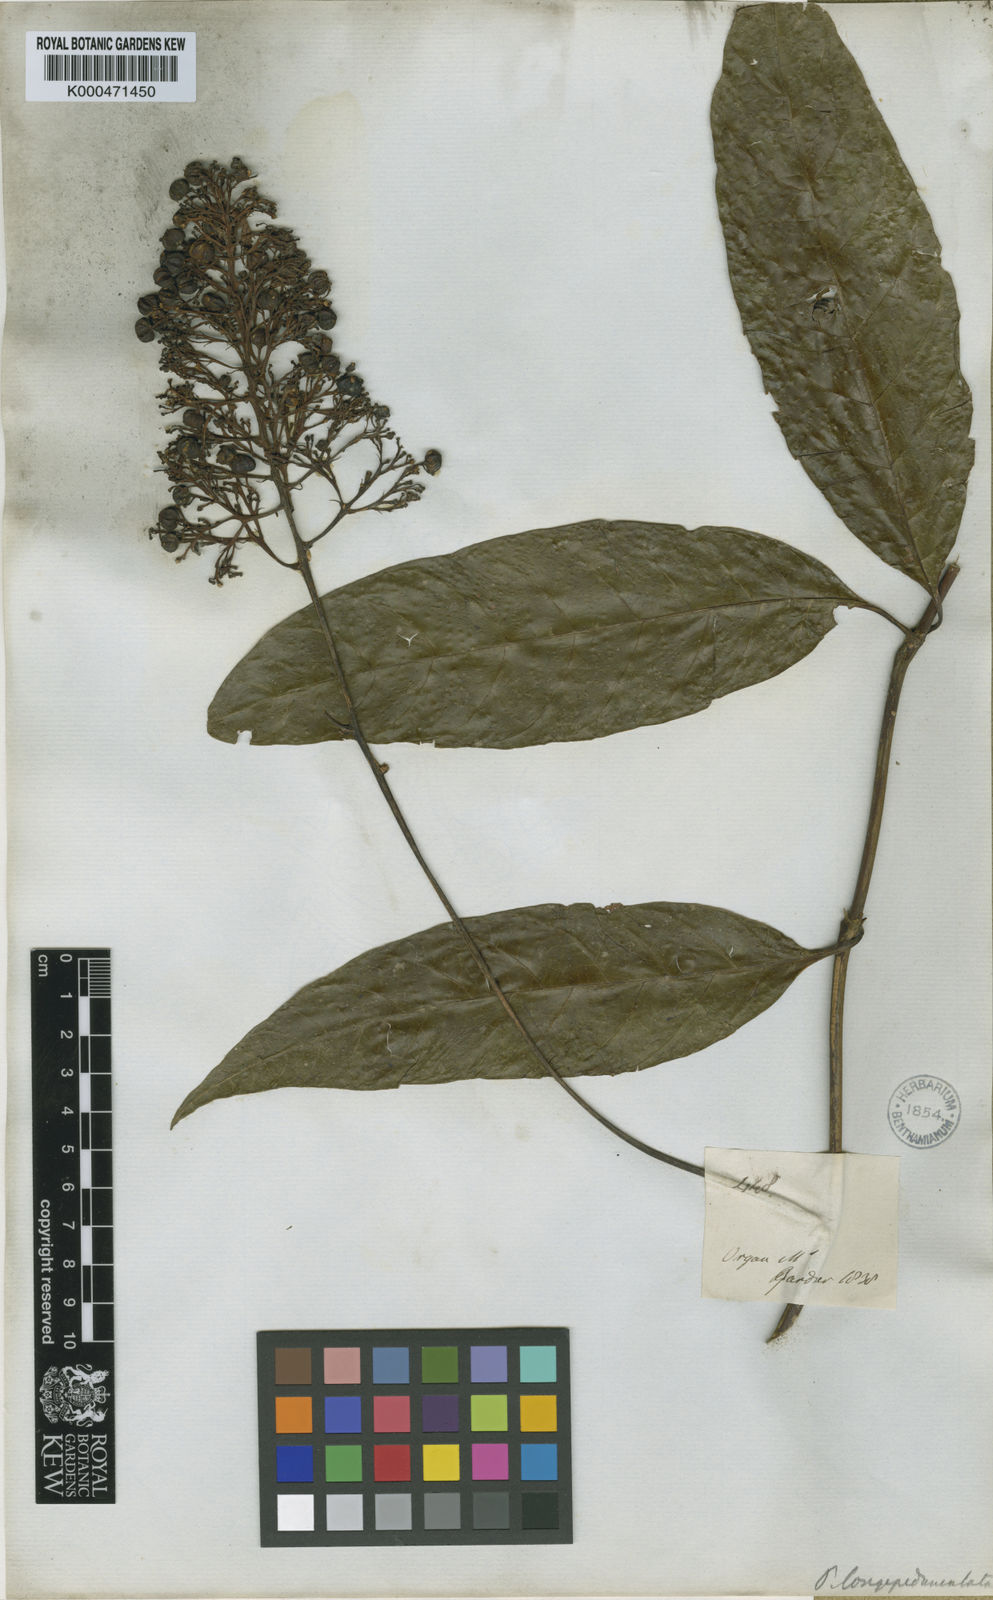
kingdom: Plantae
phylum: Tracheophyta
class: Magnoliopsida
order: Gentianales
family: Rubiaceae
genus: Palicourea
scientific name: Palicourea longipedunculata
